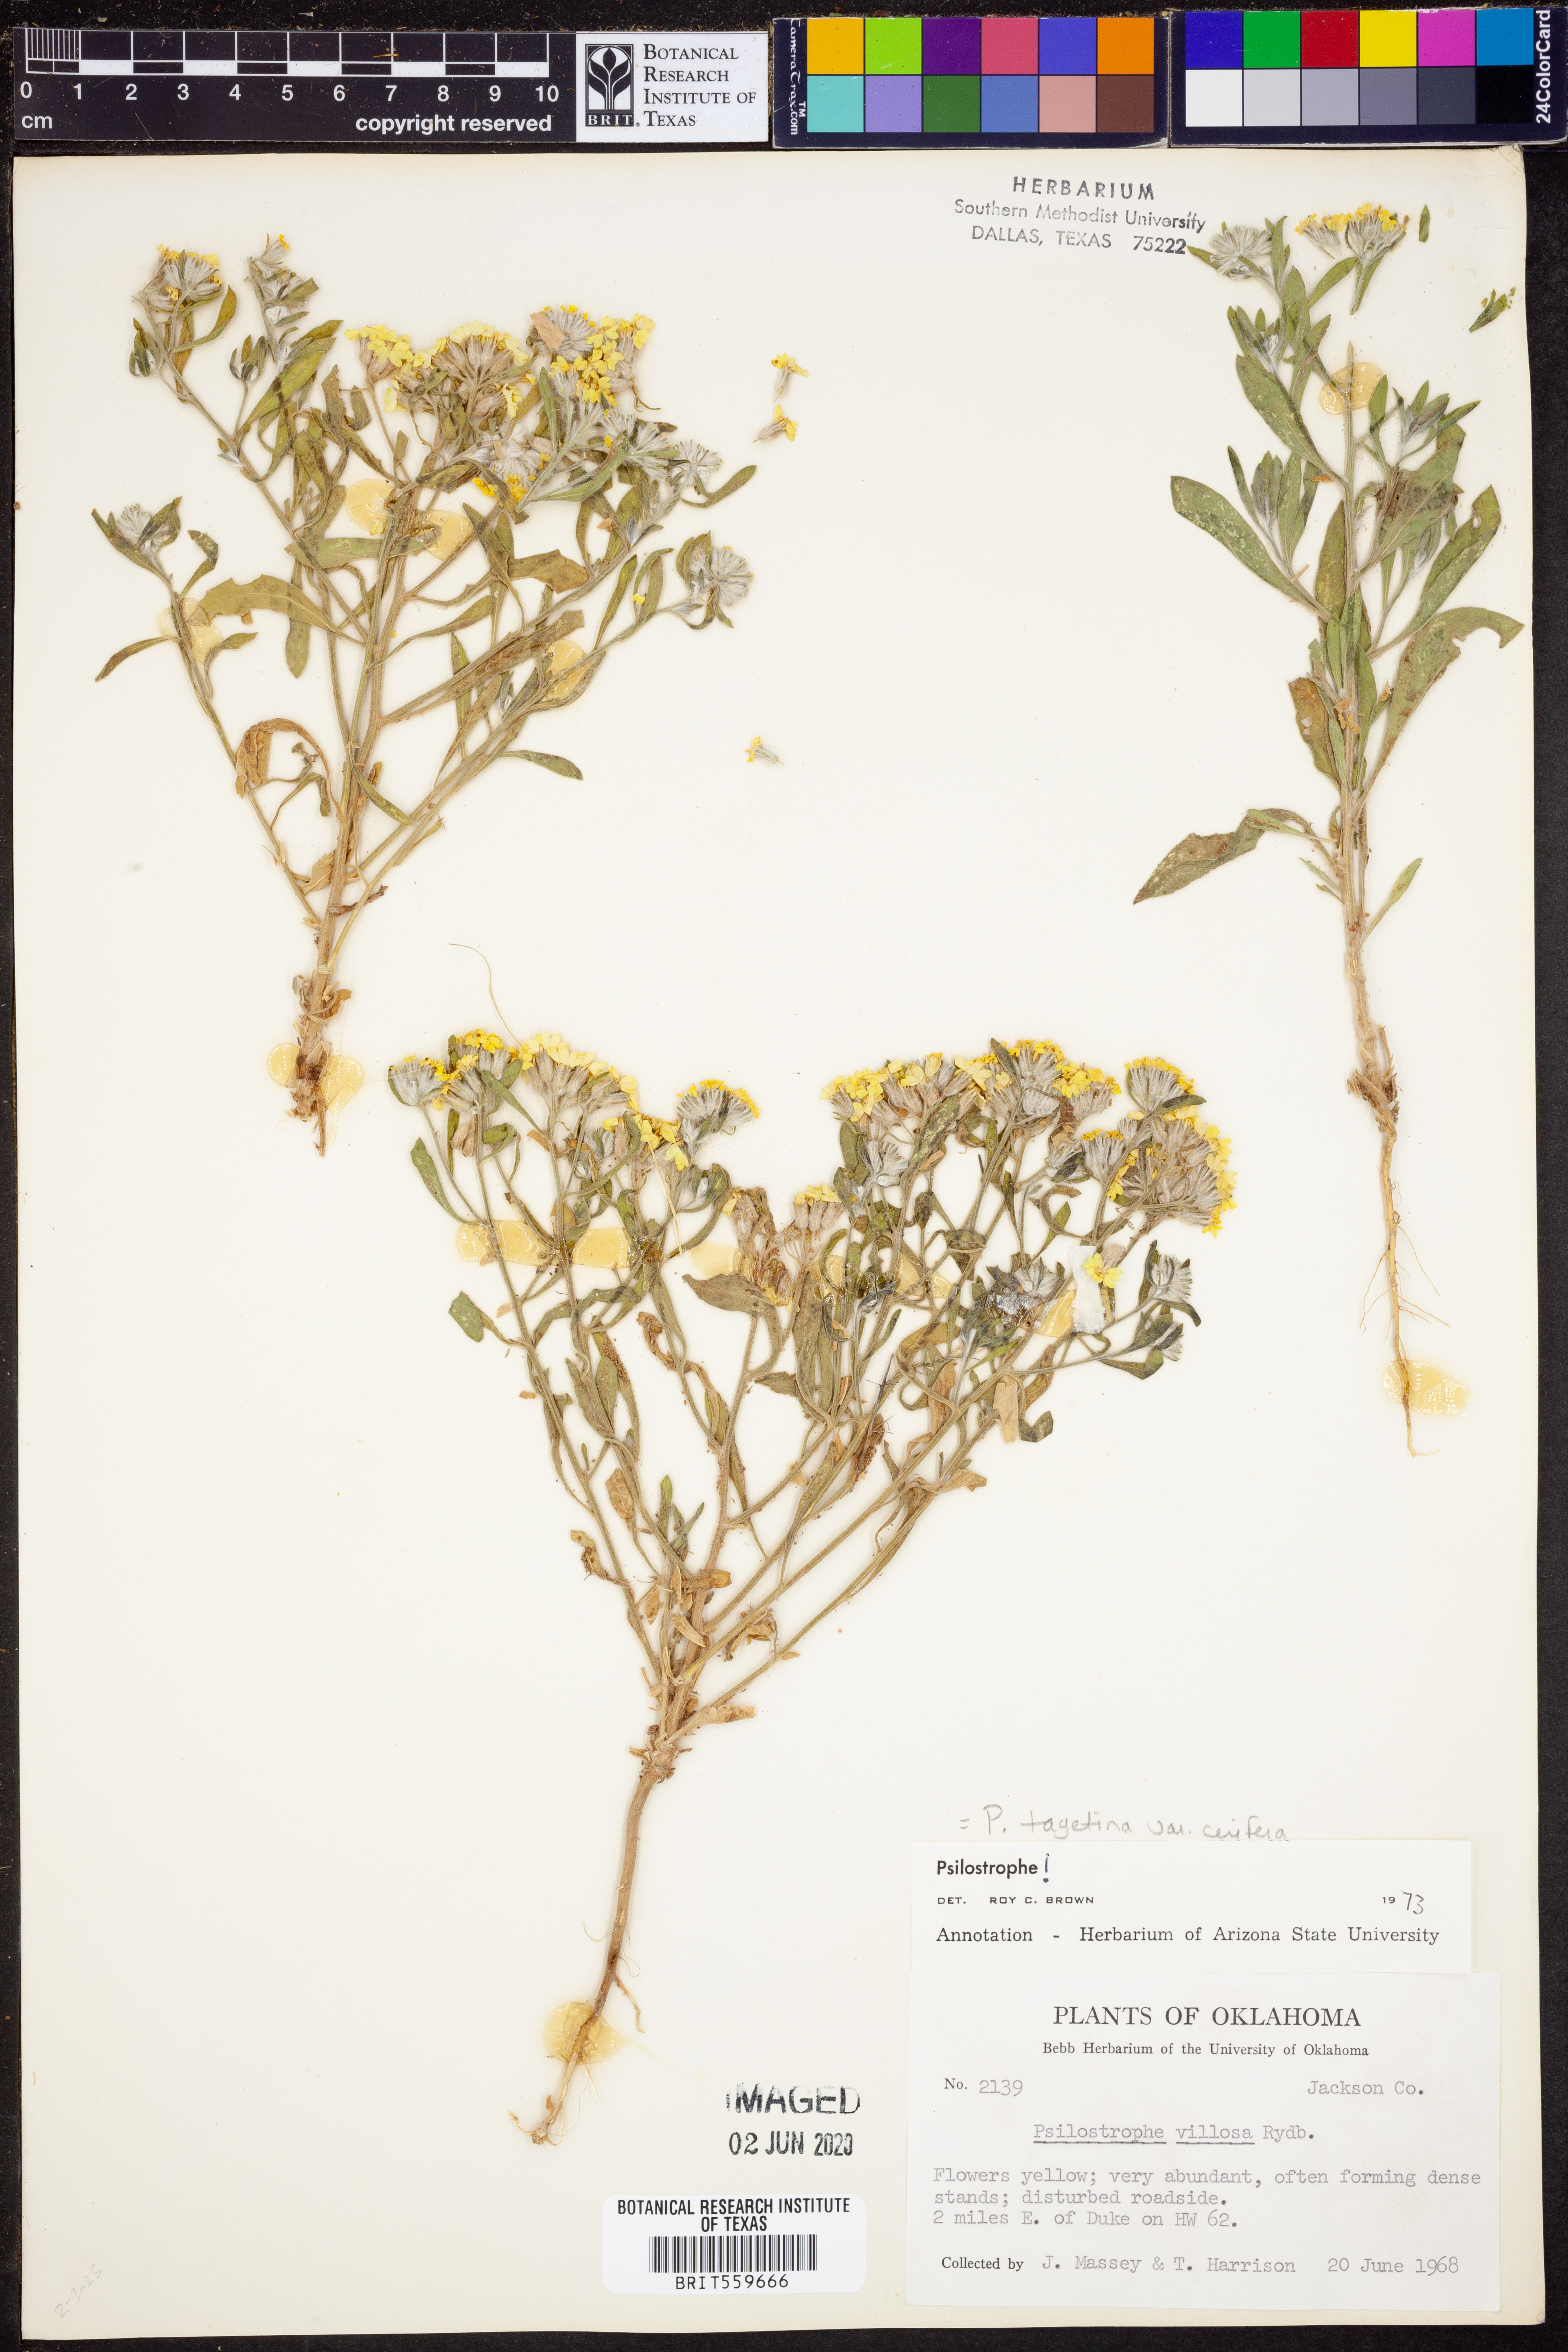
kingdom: Plantae
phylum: Tracheophyta
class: Magnoliopsida
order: Asterales
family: Asteraceae
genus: Psilostrophe
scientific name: Psilostrophe villosa
